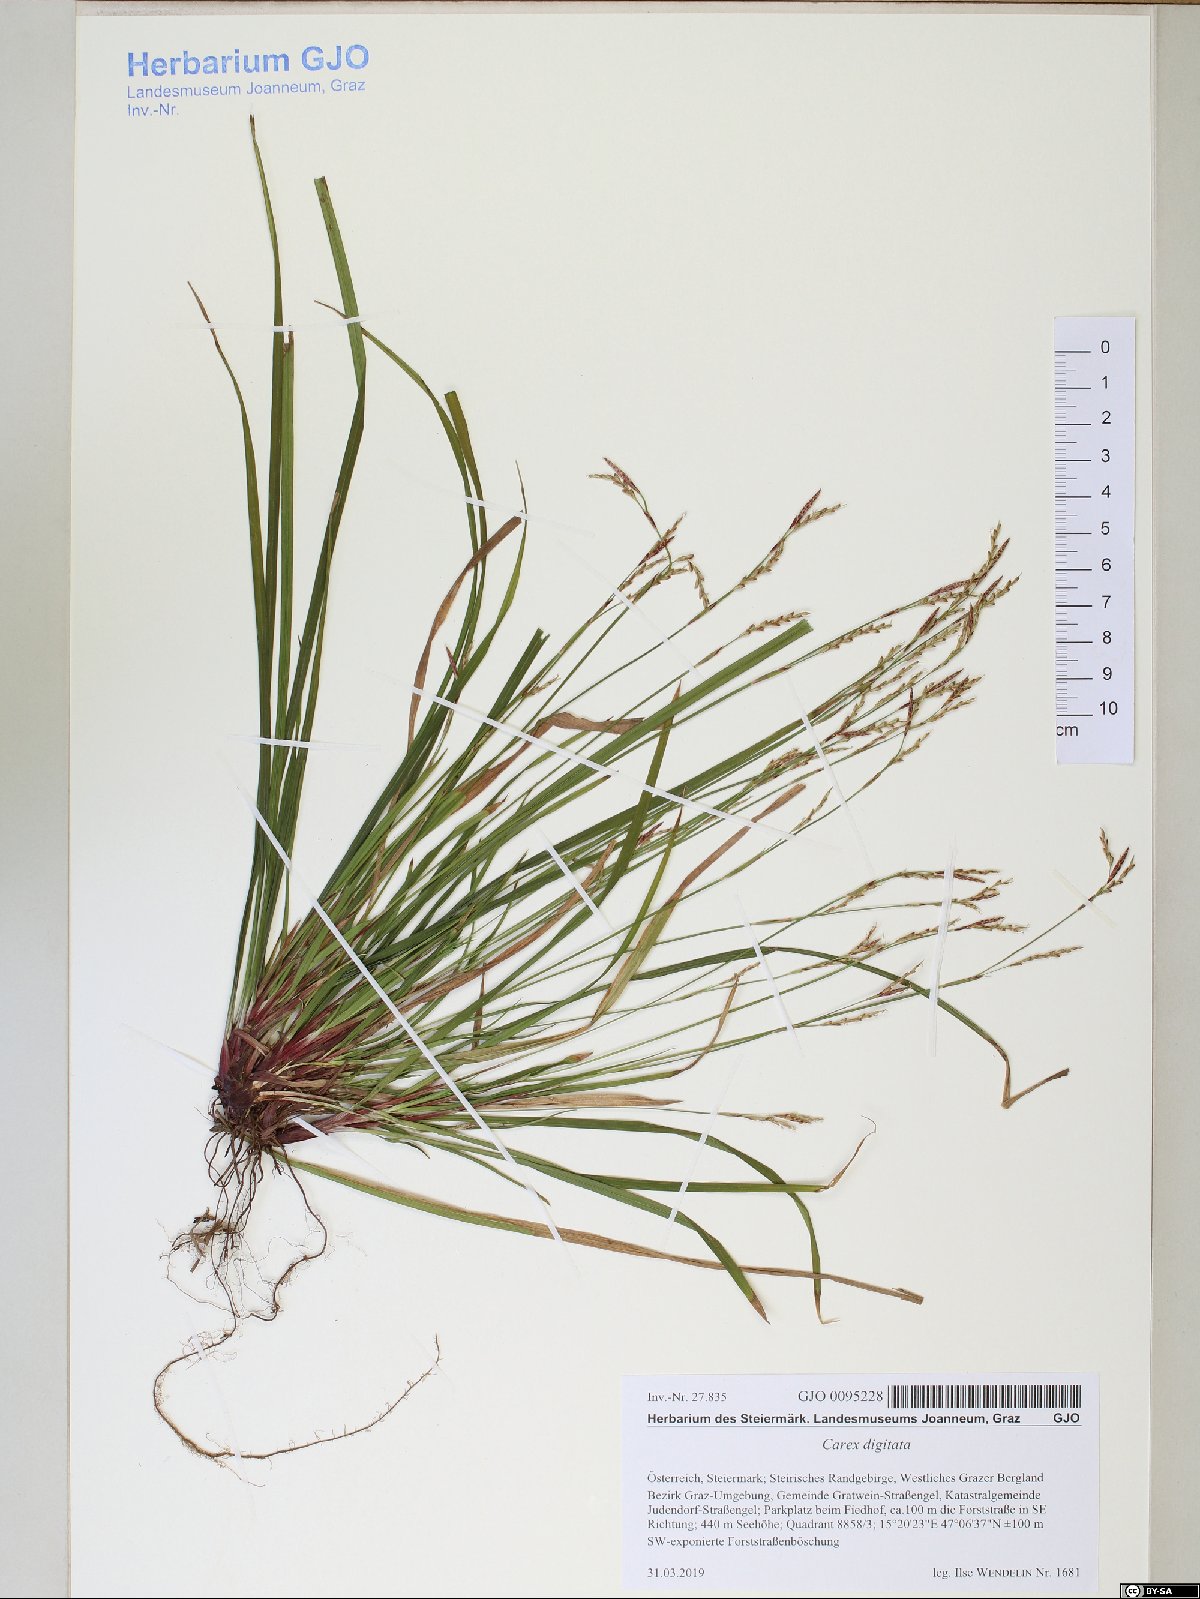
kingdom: Plantae
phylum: Tracheophyta
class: Liliopsida
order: Poales
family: Cyperaceae
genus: Carex
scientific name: Carex digitata
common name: Fingered sedge
